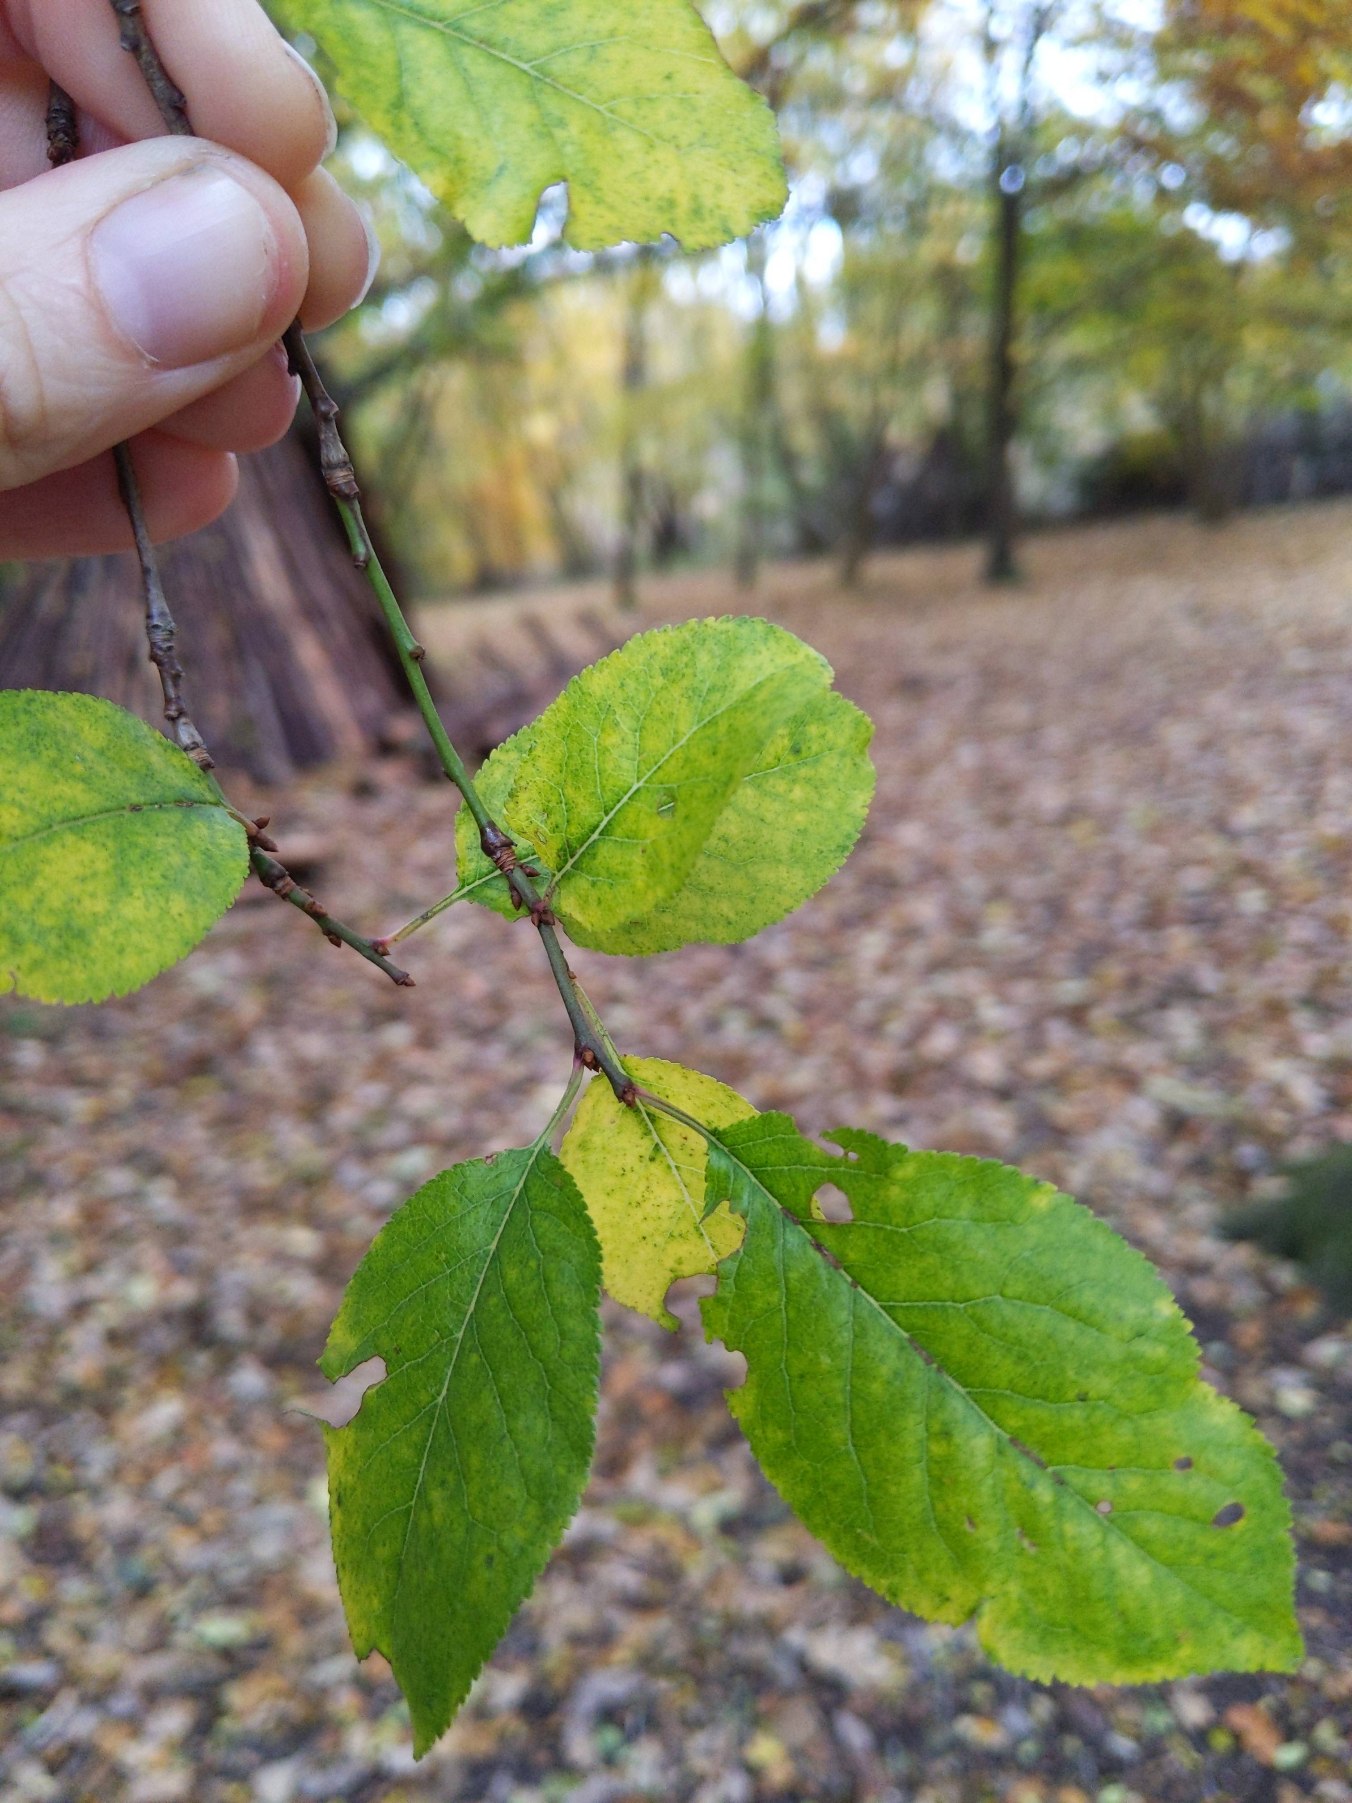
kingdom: Plantae
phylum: Tracheophyta
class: Magnoliopsida
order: Rosales
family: Rosaceae
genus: Prunus
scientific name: Prunus cerasifera
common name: Mirabel
